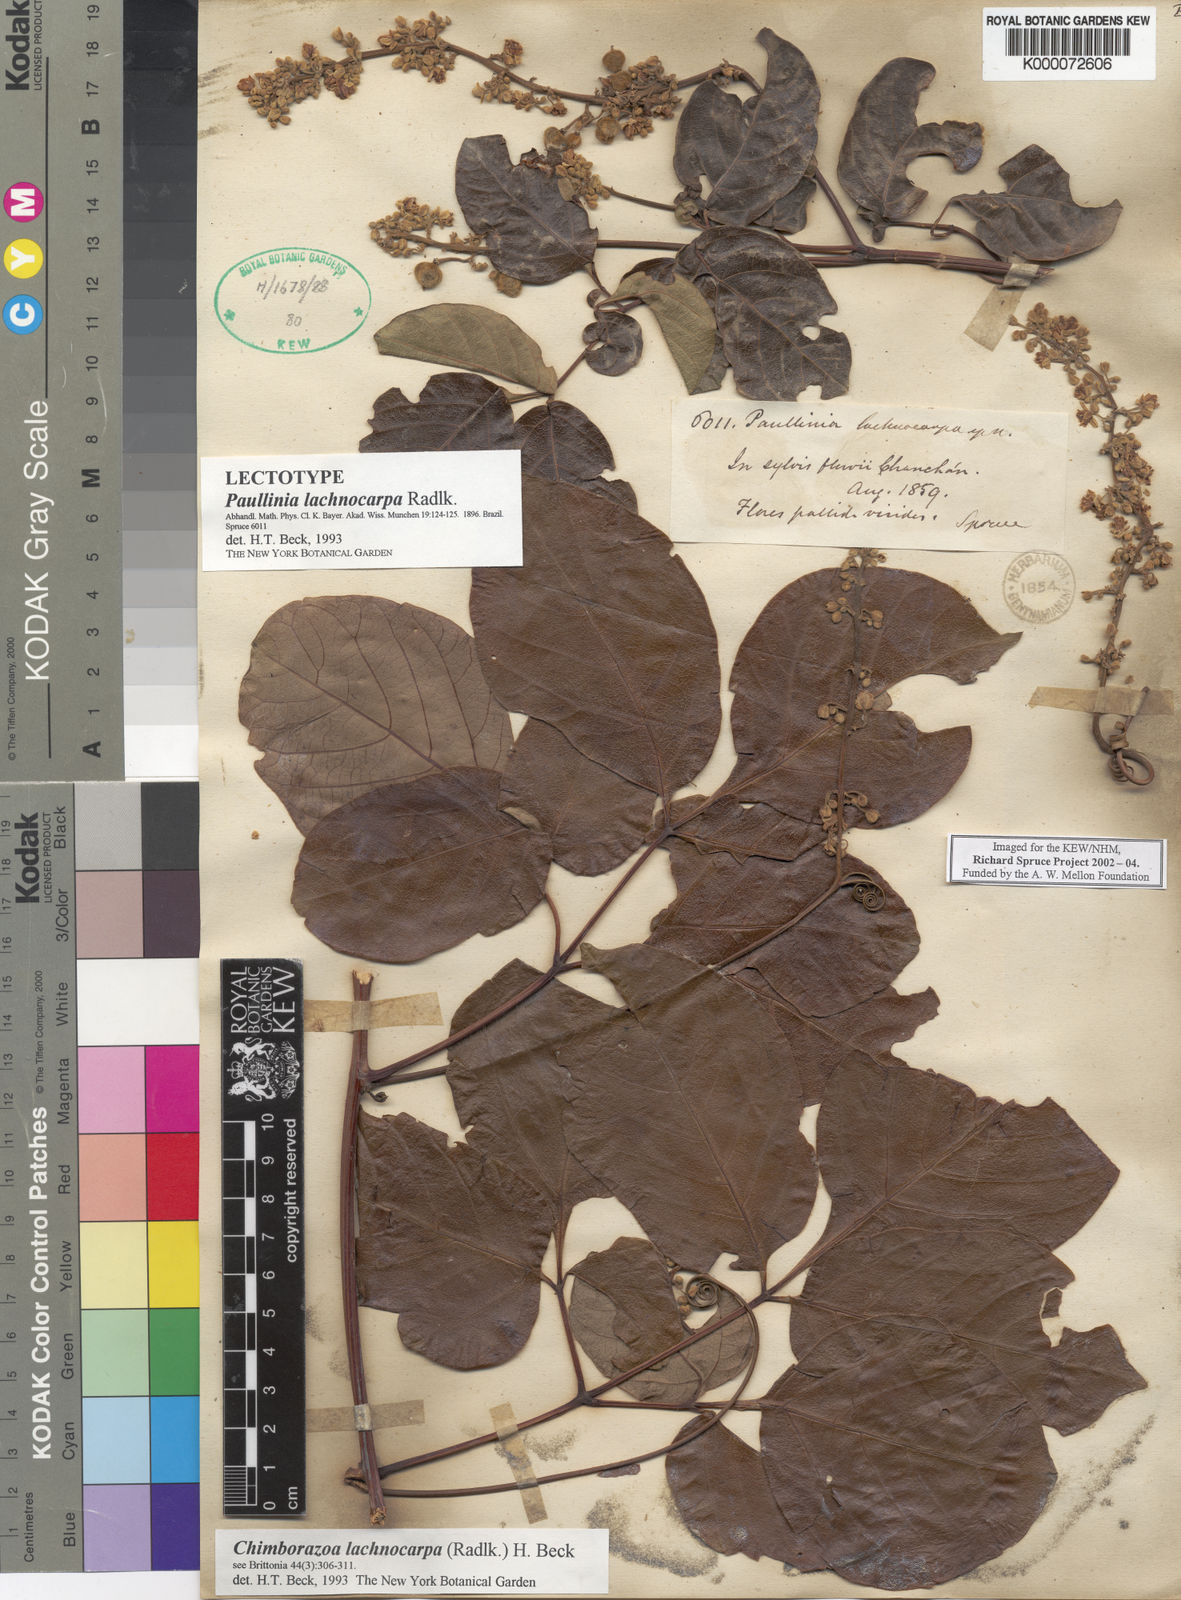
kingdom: Plantae
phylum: Tracheophyta
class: Magnoliopsida
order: Sapindales
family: Sapindaceae
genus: Serjania
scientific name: Serjania lachnocarpa
